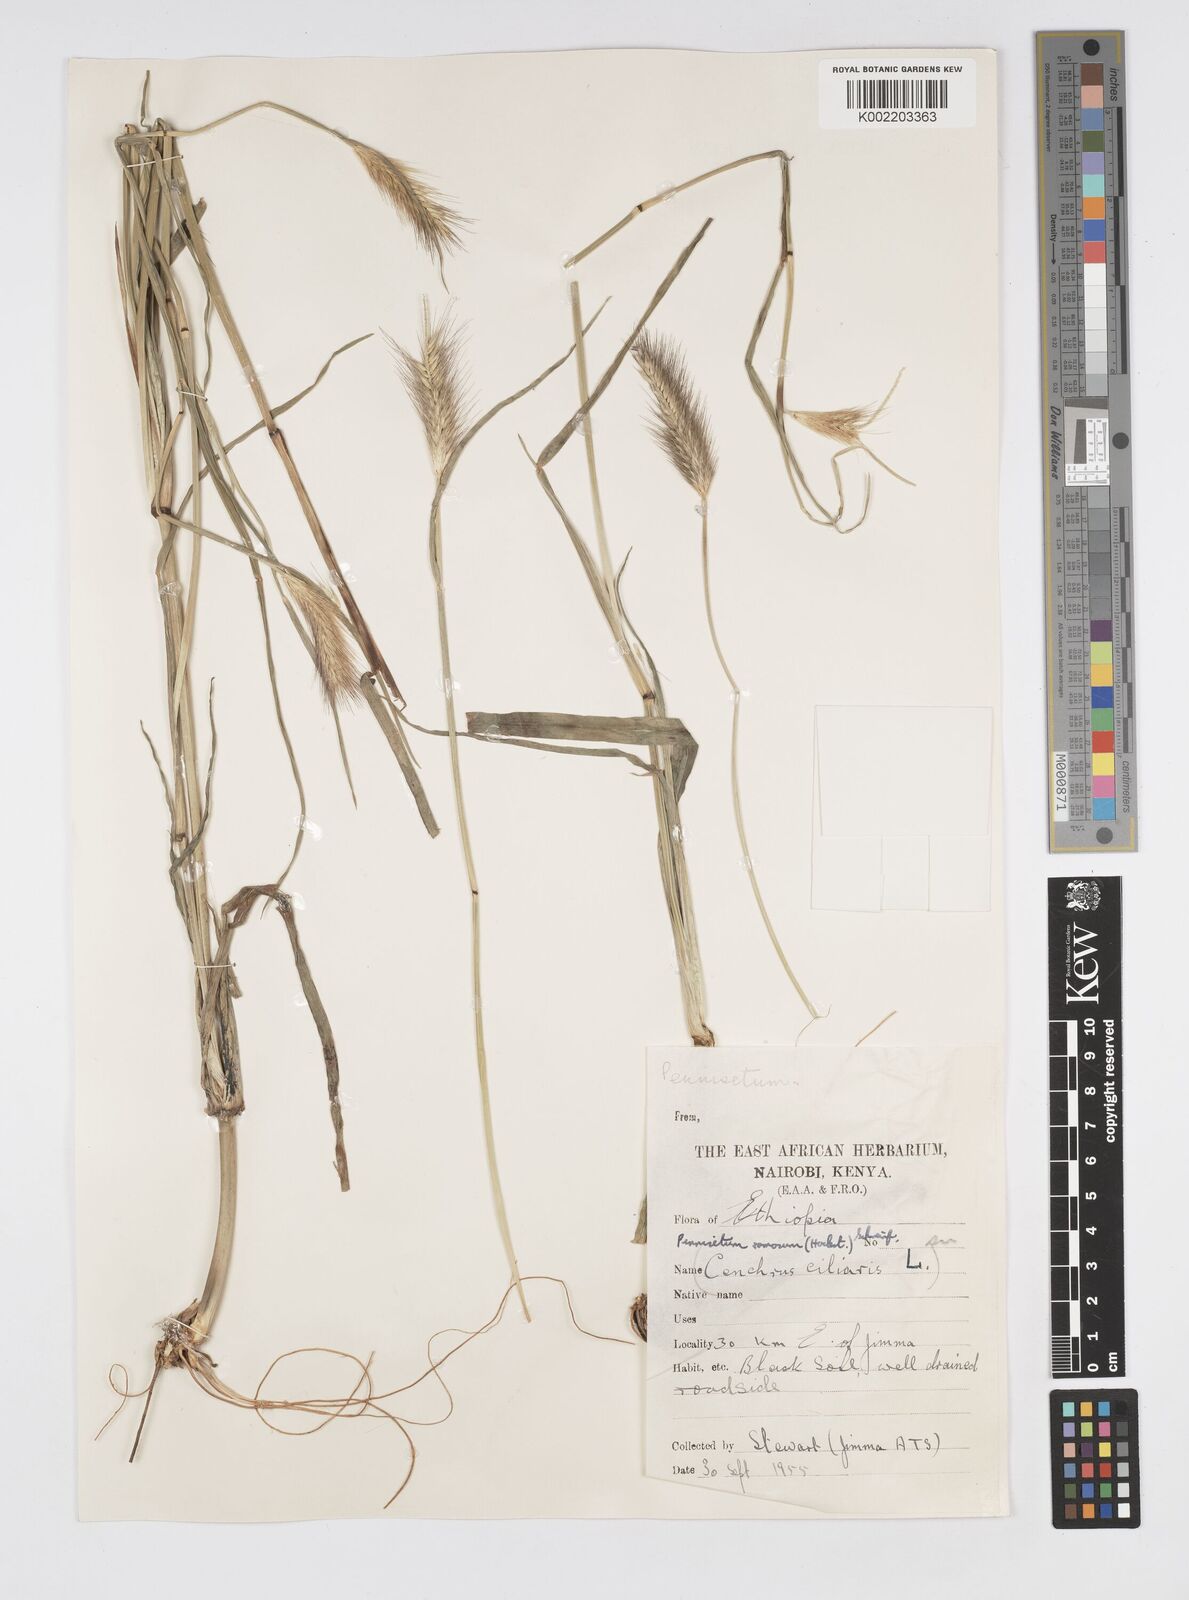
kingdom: Plantae
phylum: Tracheophyta
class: Liliopsida
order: Poales
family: Poaceae
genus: Cenchrus
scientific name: Cenchrus ramosus
